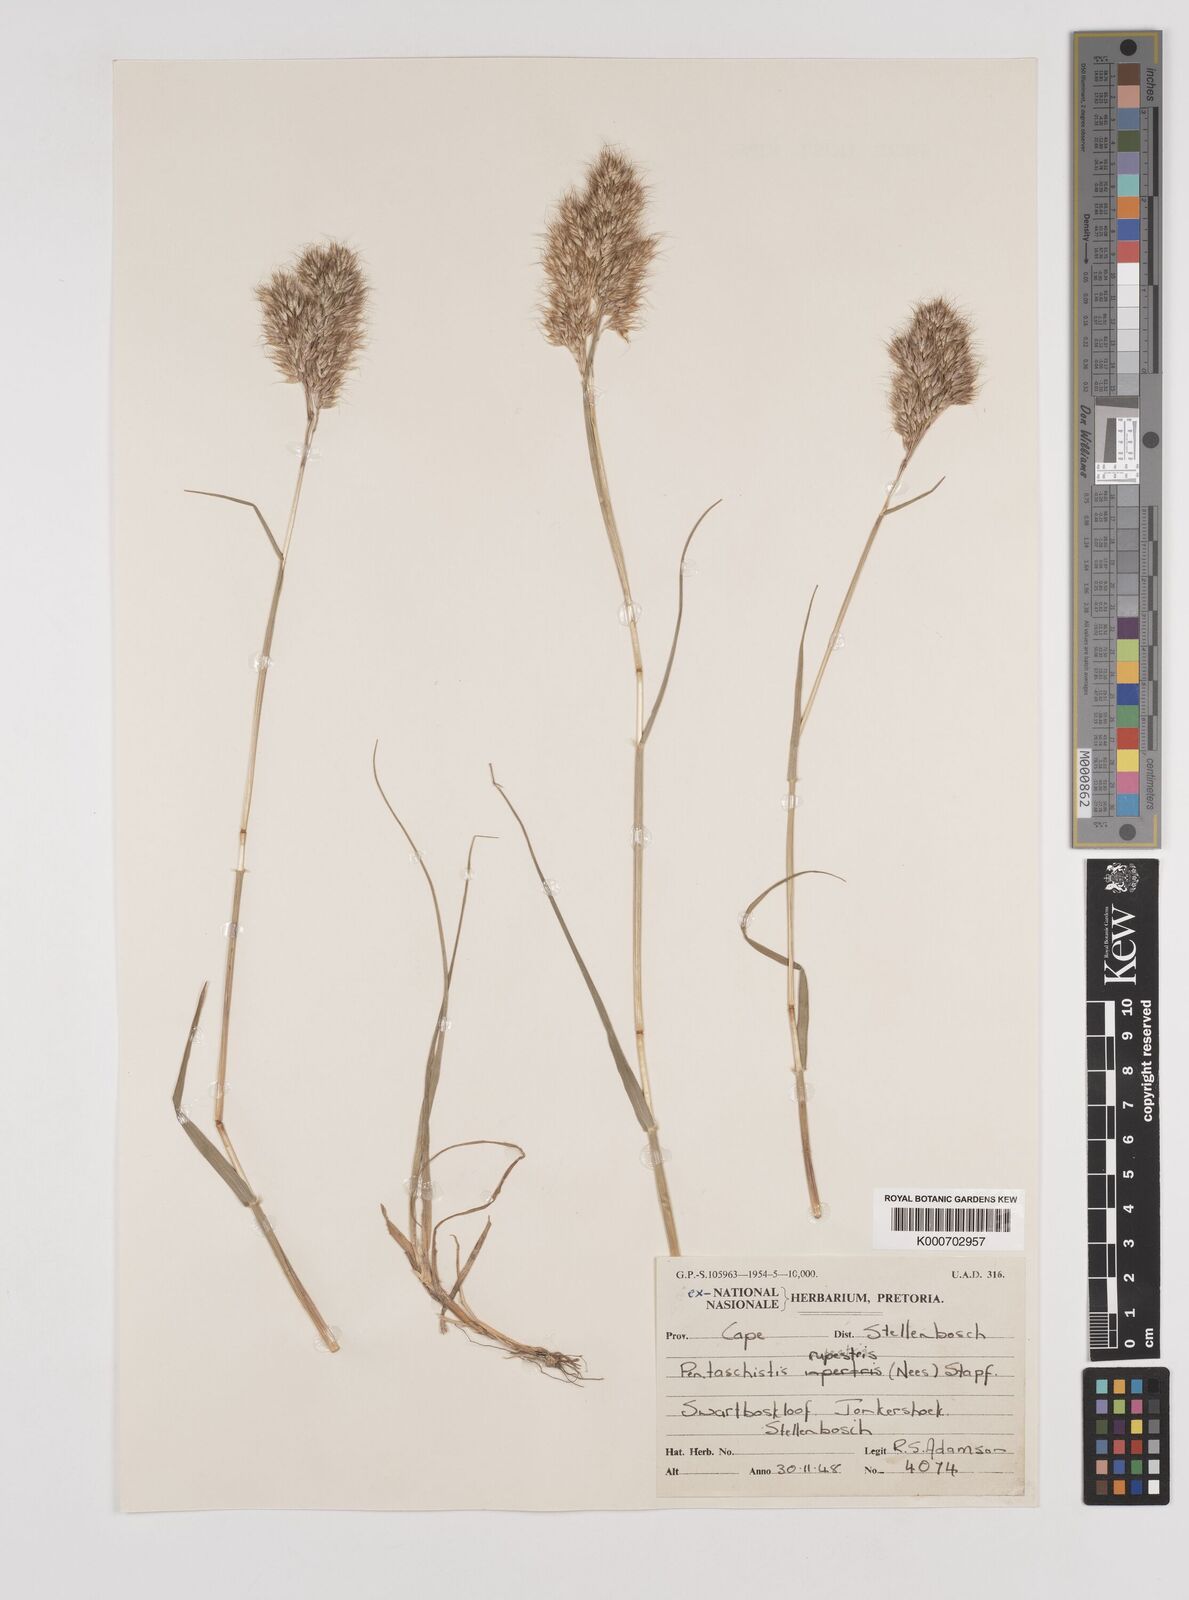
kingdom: Plantae
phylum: Tracheophyta
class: Liliopsida
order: Poales
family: Poaceae
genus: Pentameris
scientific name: Pentameris rupestris
